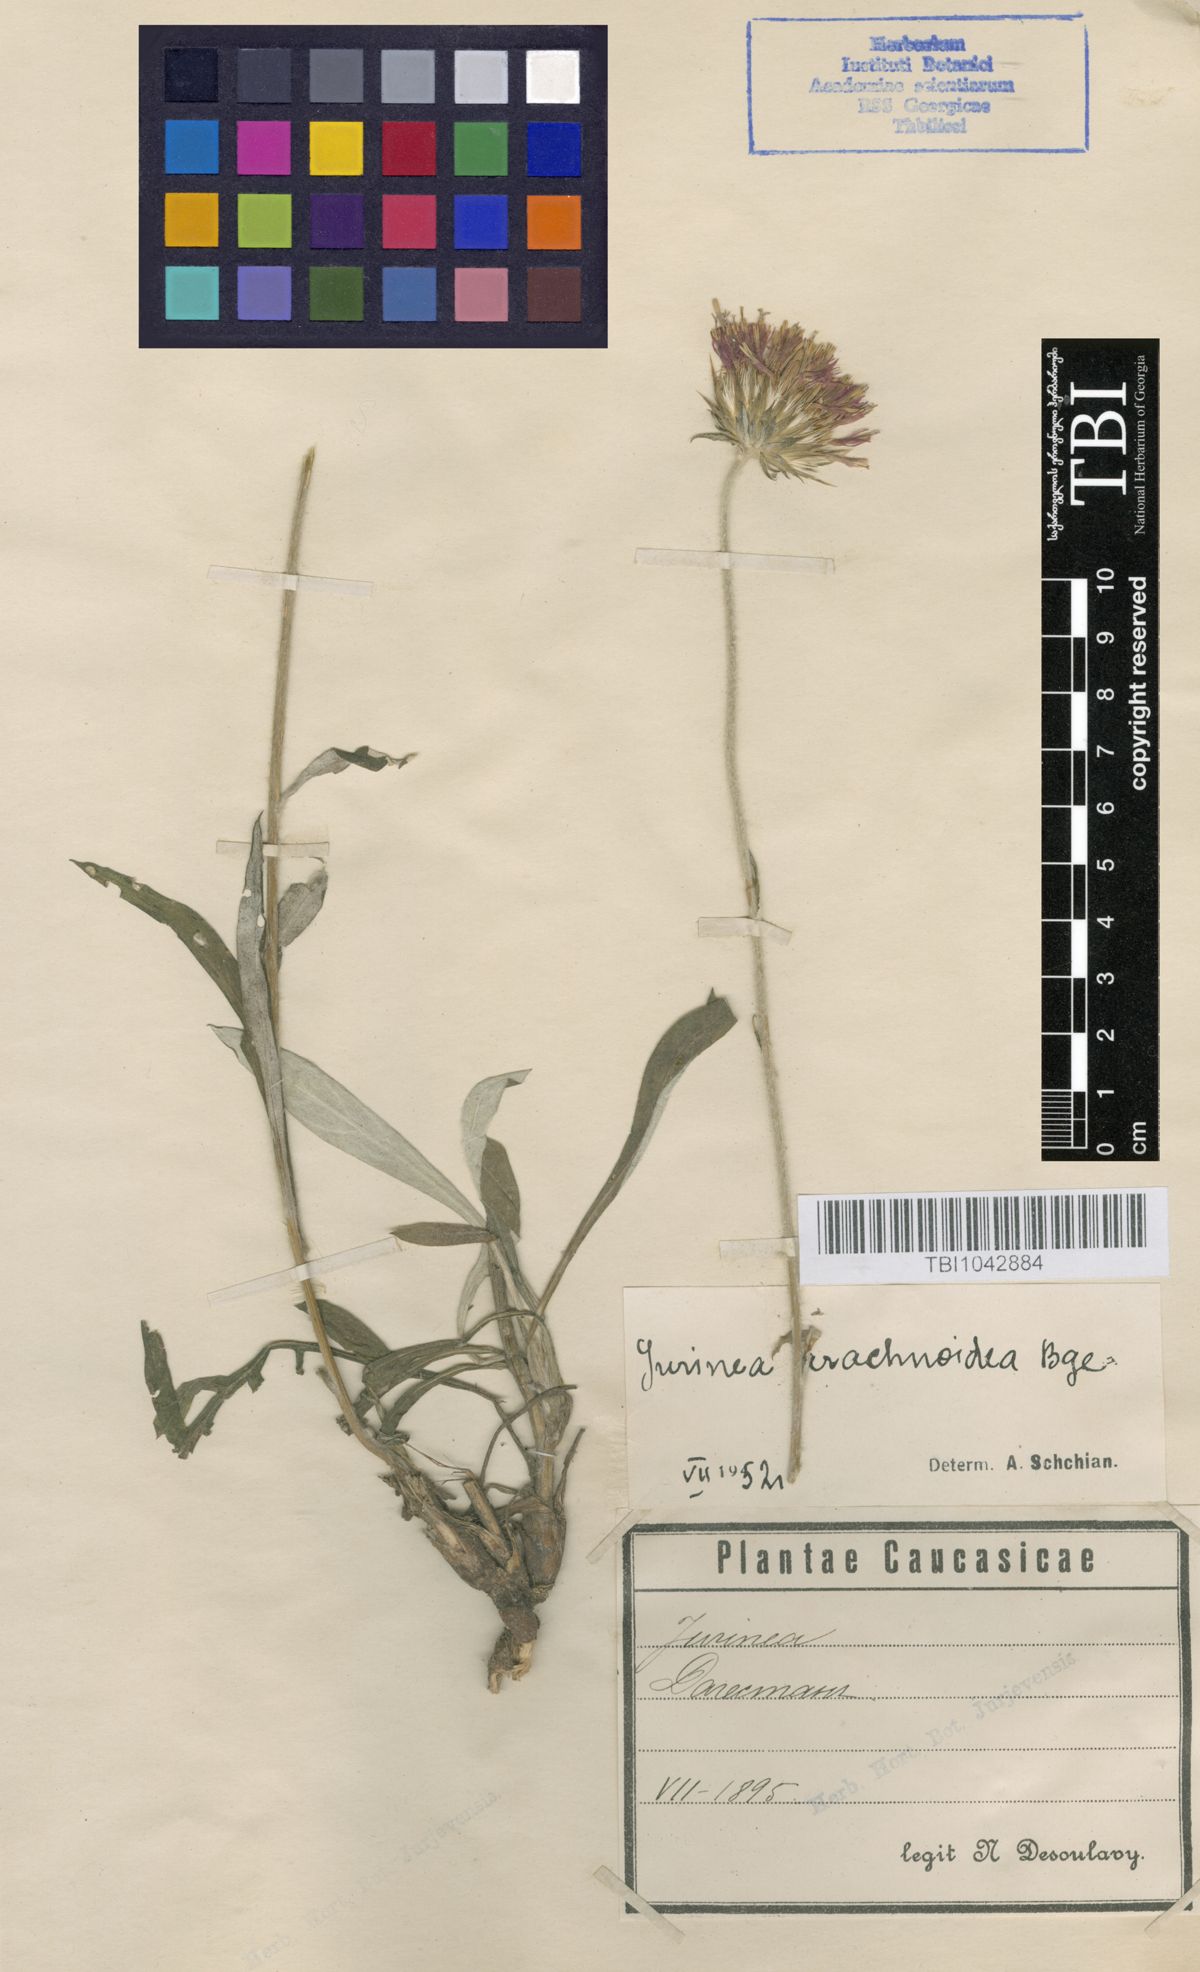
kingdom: Plantae
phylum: Tracheophyta
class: Magnoliopsida
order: Asterales
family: Asteraceae
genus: Jurinea
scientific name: Jurinea blanda
